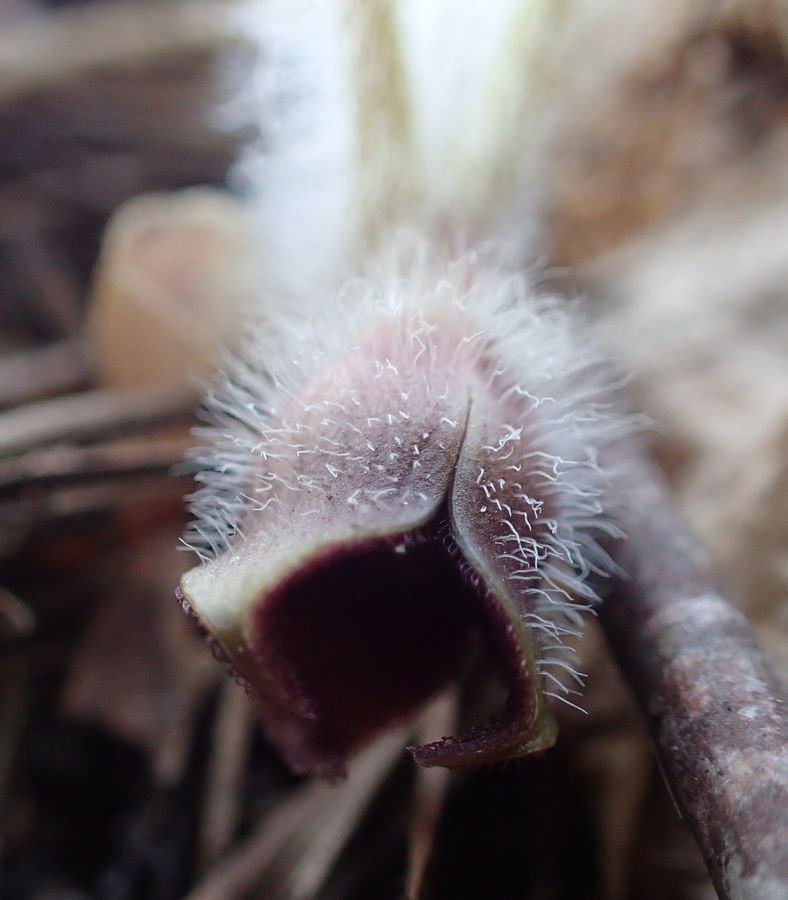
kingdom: Plantae
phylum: Tracheophyta
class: Magnoliopsida
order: Piperales
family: Aristolochiaceae
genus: Asarum
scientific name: Asarum europaeum
